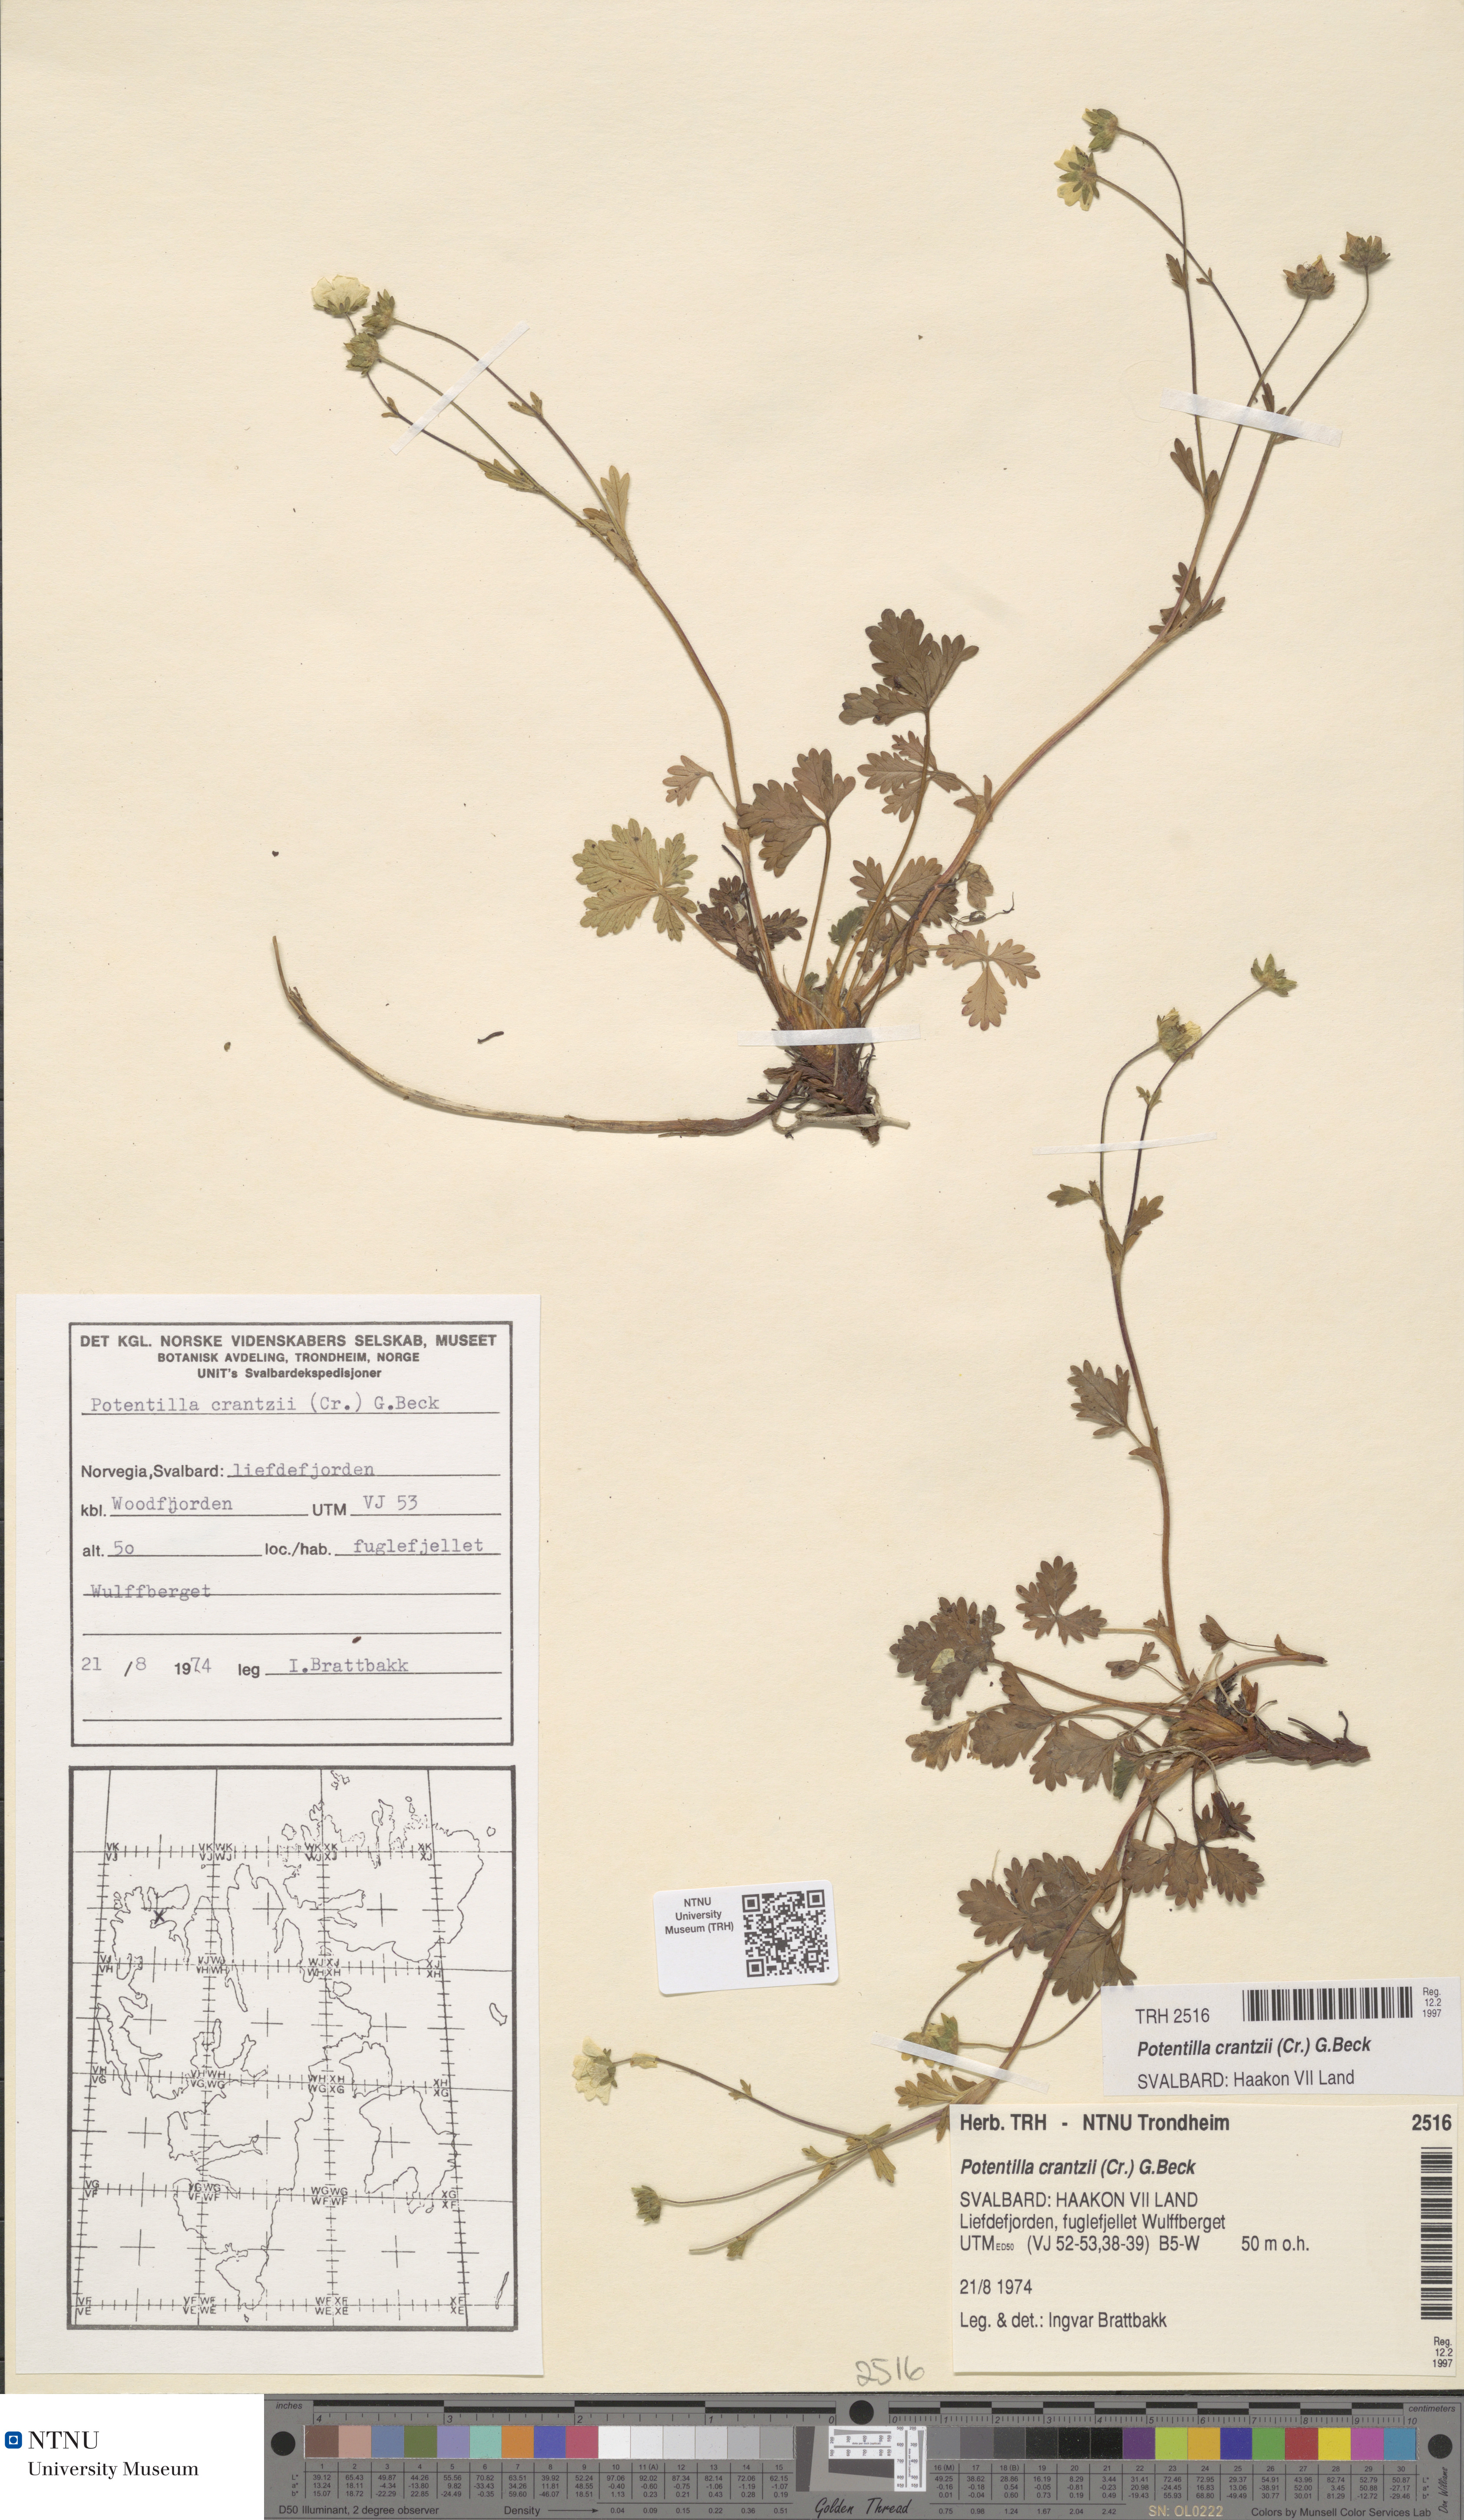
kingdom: Plantae
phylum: Tracheophyta
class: Magnoliopsida
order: Rosales
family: Rosaceae
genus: Potentilla
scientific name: Potentilla crantzii
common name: Alpine cinquefoil
